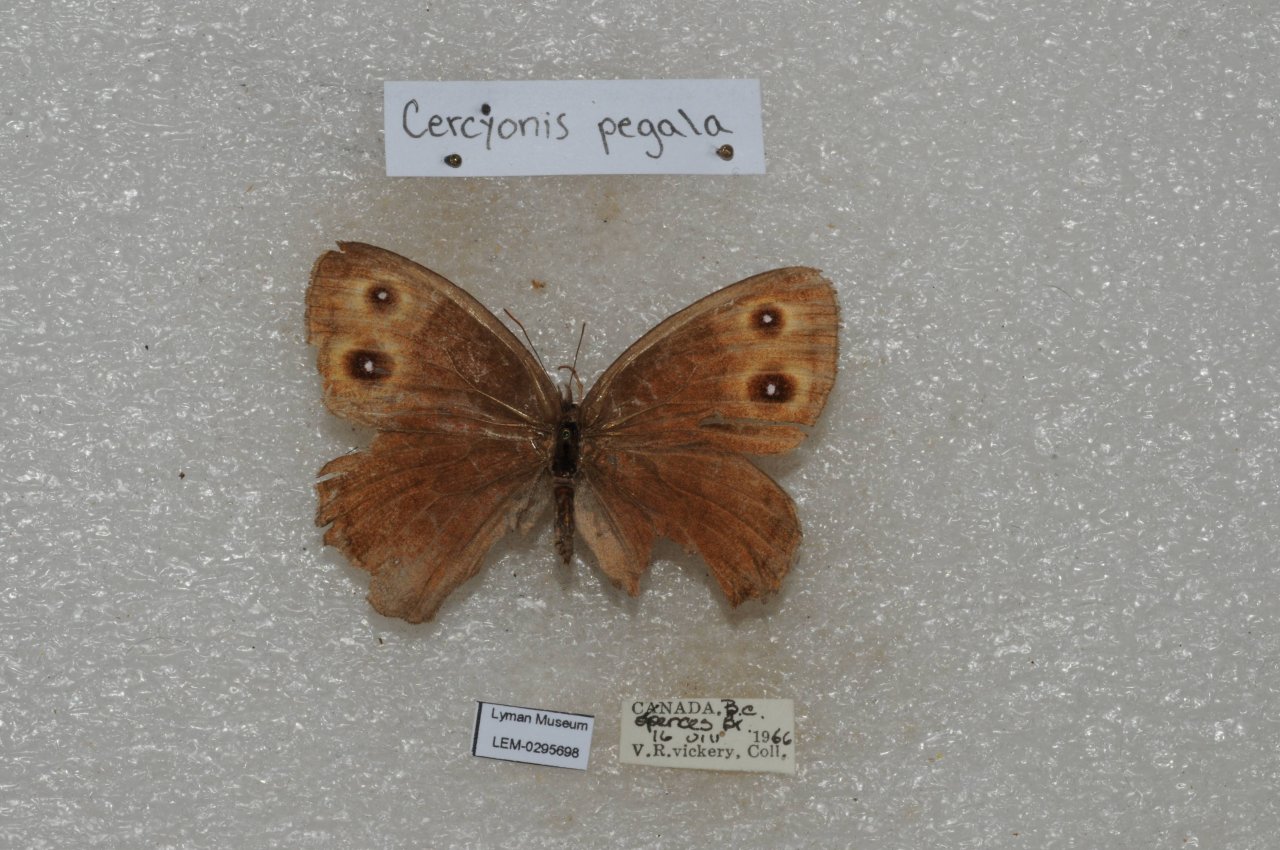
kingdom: Animalia
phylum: Arthropoda
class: Insecta
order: Lepidoptera
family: Nymphalidae
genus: Cercyonis
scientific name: Cercyonis pegala
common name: Common Wood-Nymph
